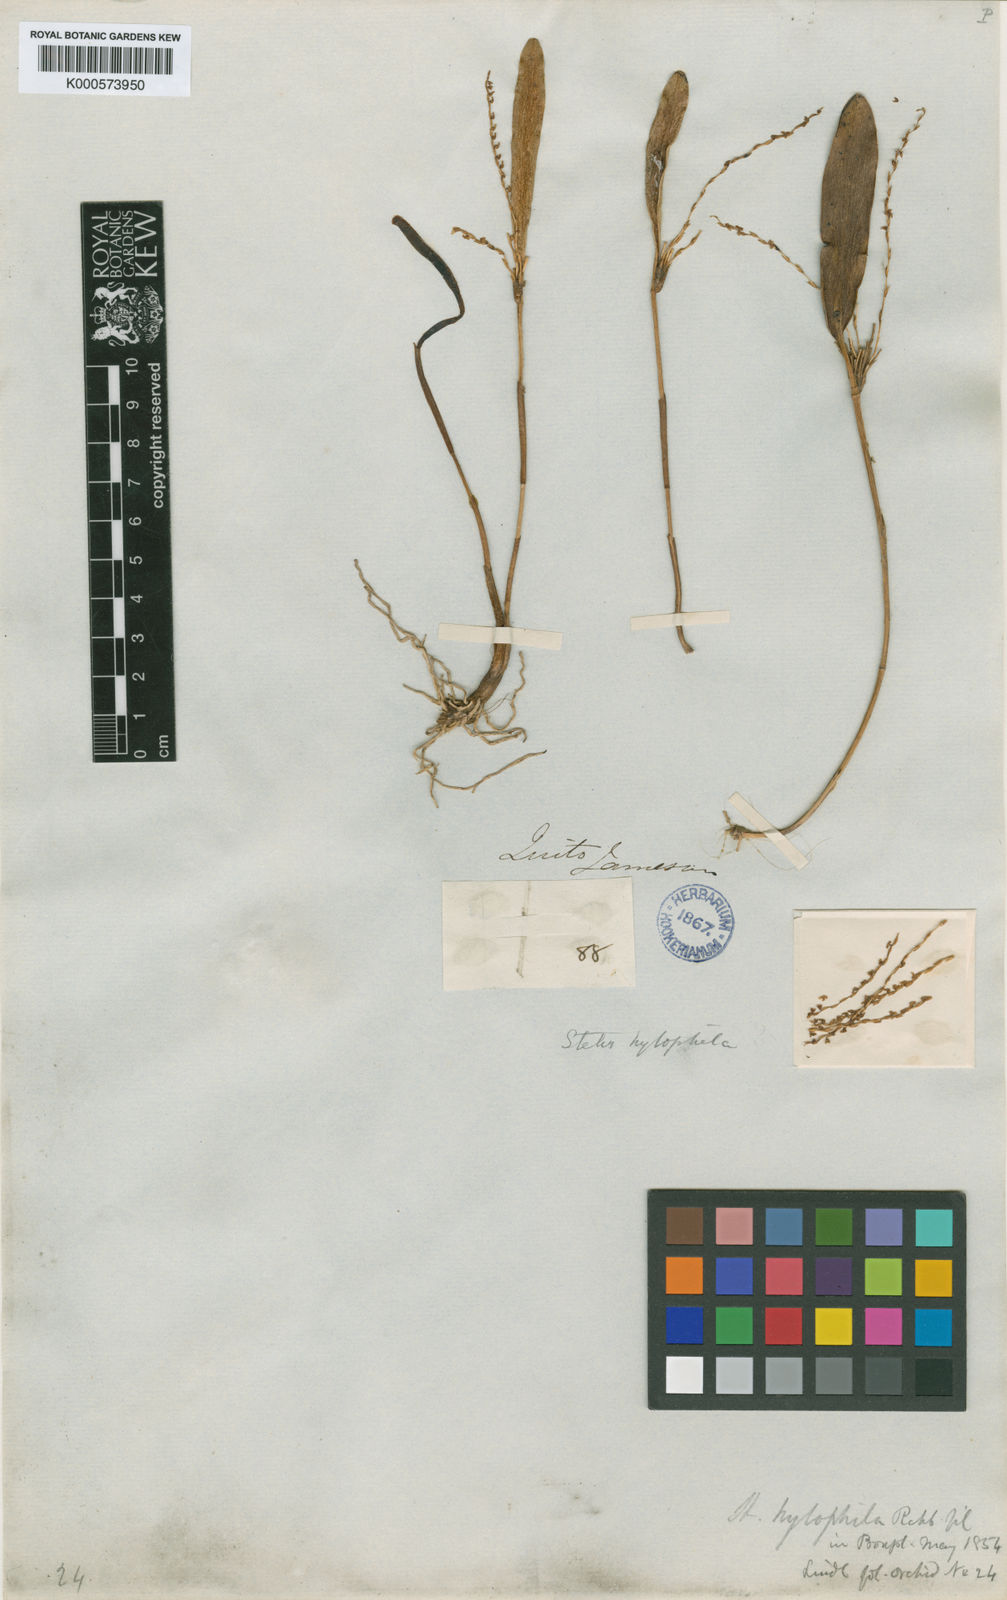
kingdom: Plantae
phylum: Tracheophyta
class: Liliopsida
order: Asparagales
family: Orchidaceae
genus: Stelis
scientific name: Stelis hylophila
